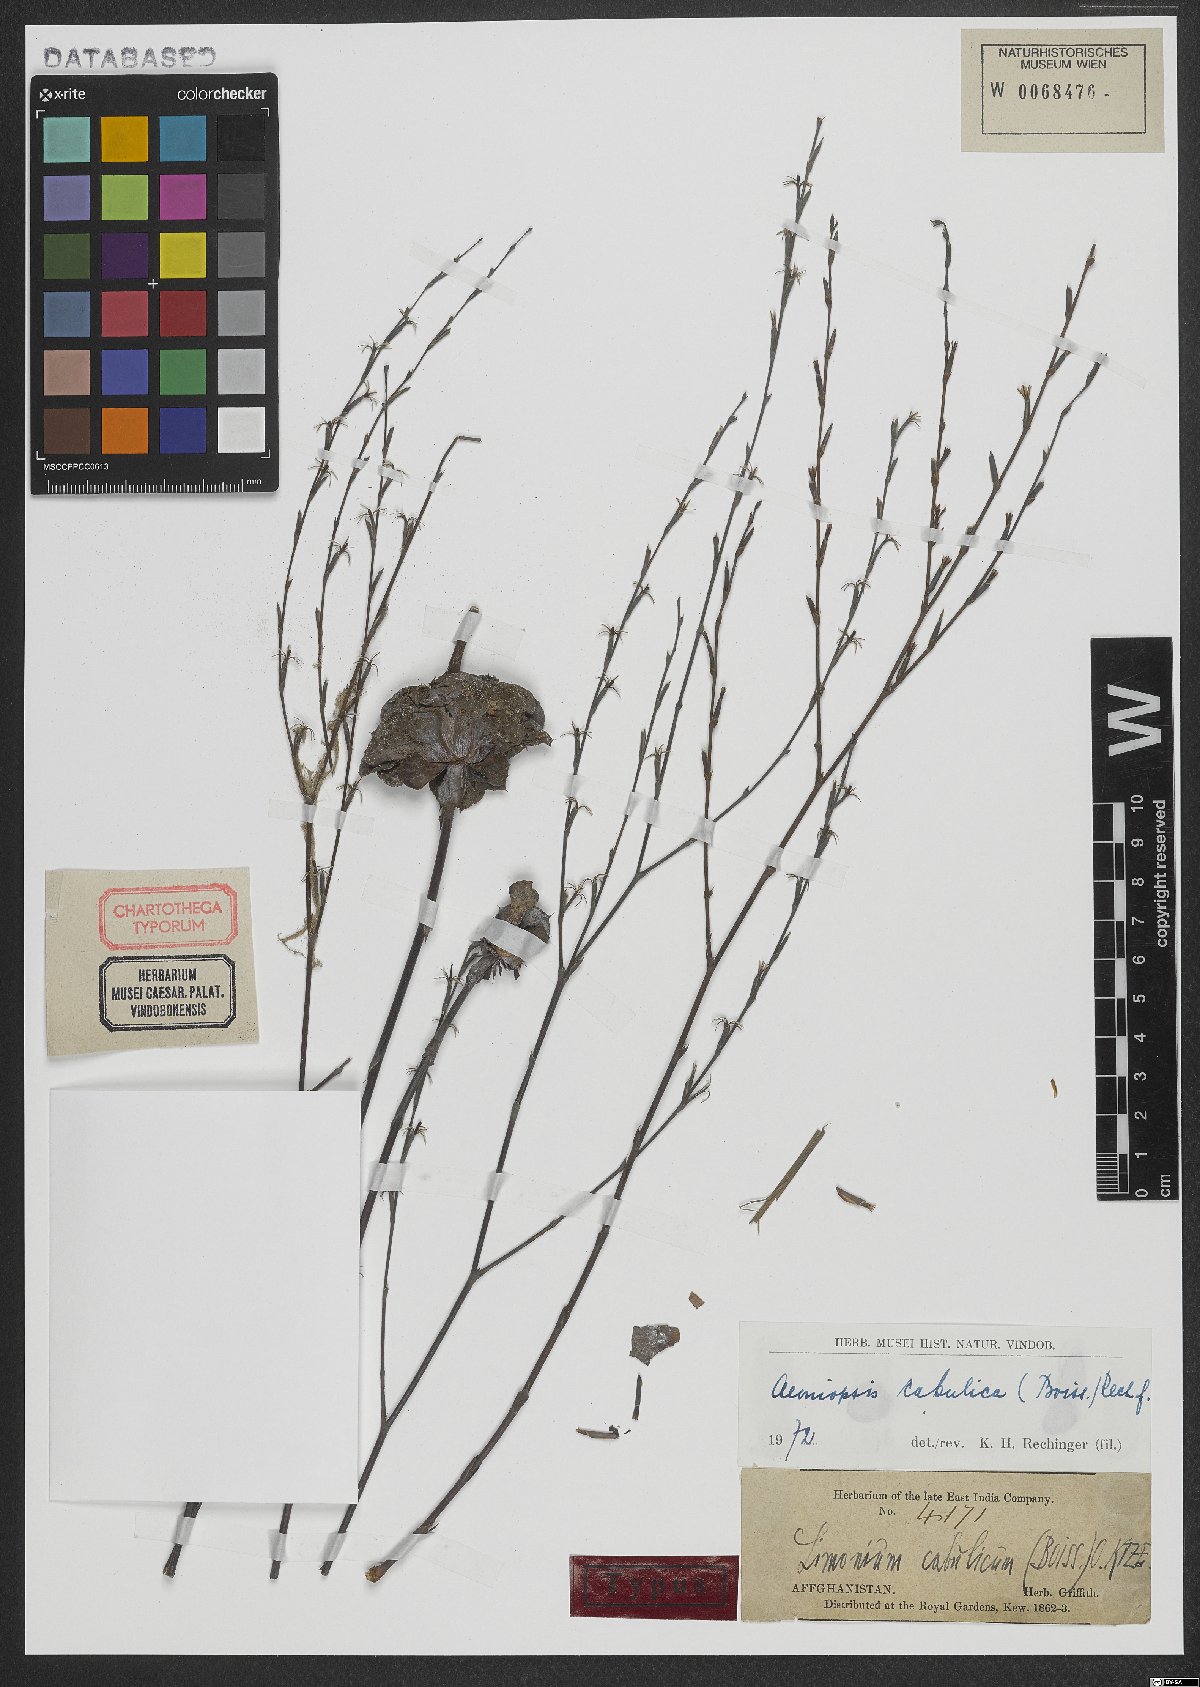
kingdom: Plantae
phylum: Tracheophyta
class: Magnoliopsida
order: Caryophyllales
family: Plumbaginaceae
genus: Bukiniczia
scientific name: Bukiniczia cabulica
